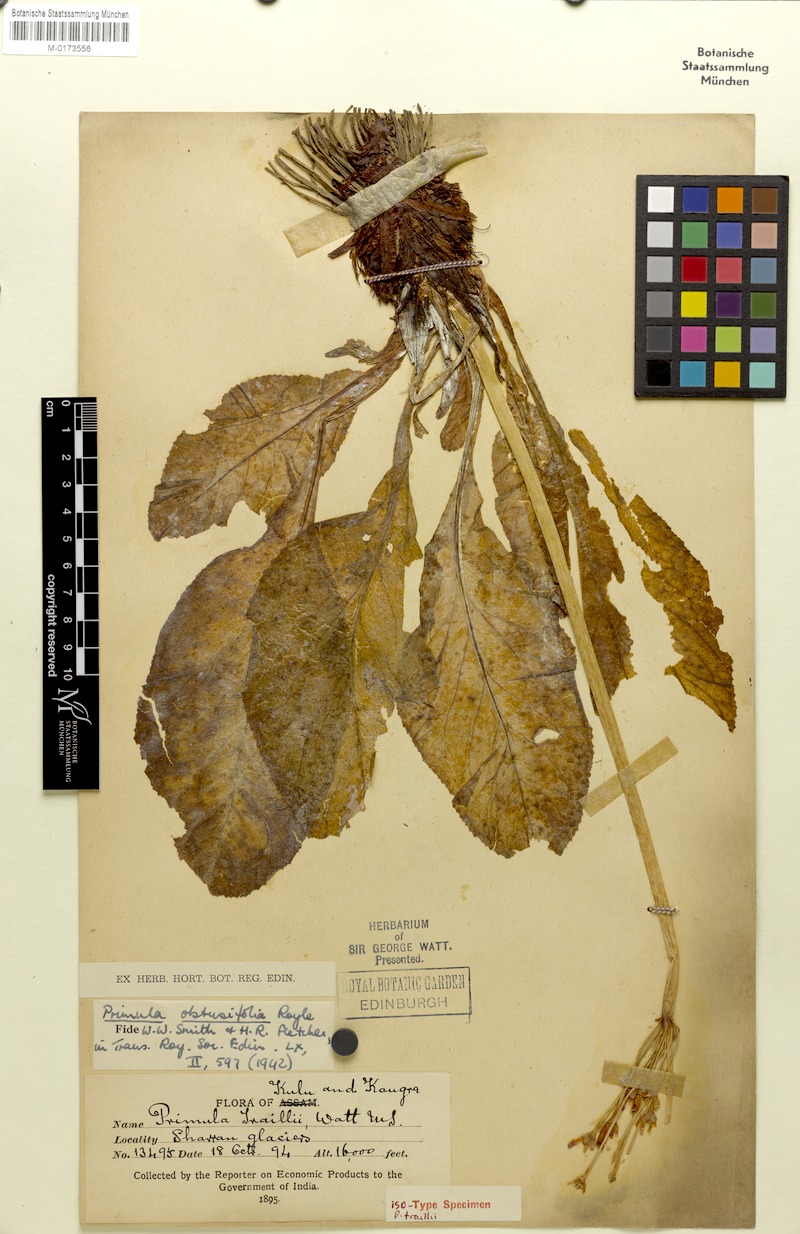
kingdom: Plantae
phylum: Tracheophyta
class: Magnoliopsida
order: Ericales
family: Primulaceae
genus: Primula
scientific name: Primula obtusifolia
